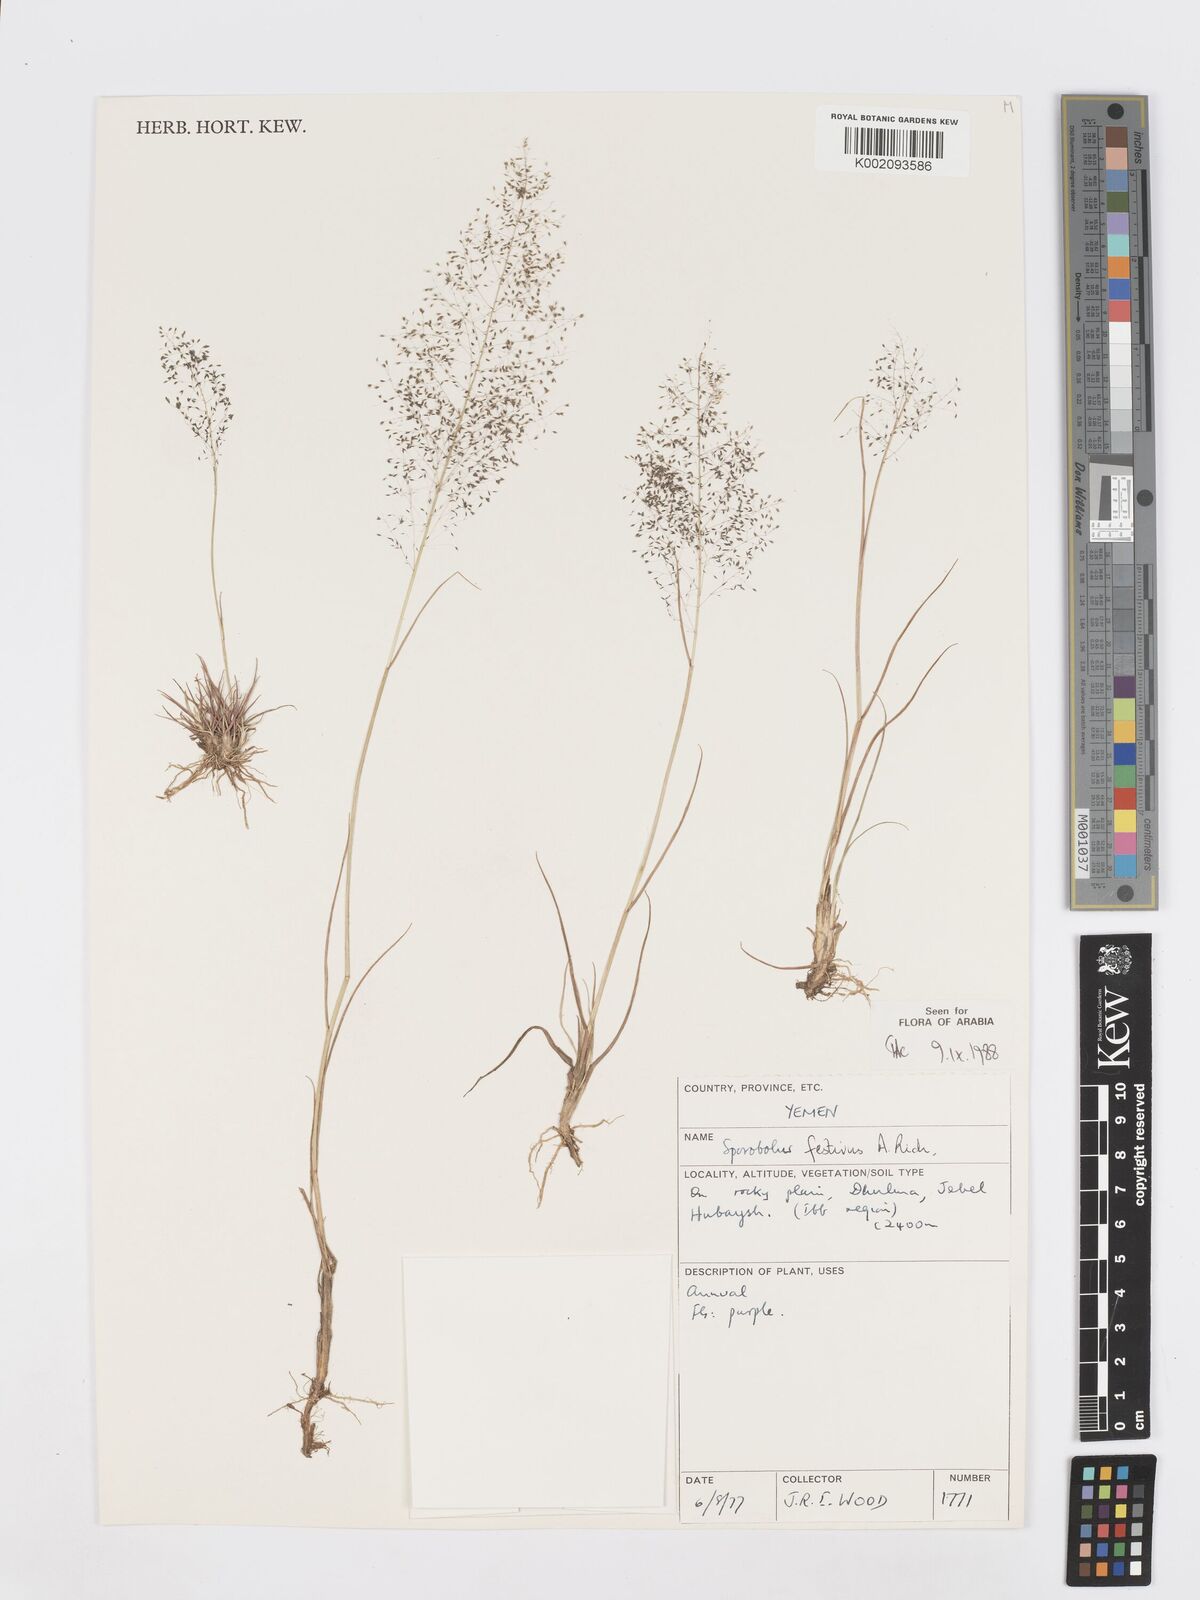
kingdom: Plantae
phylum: Tracheophyta
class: Liliopsida
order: Poales
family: Poaceae
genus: Sporobolus
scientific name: Sporobolus festivus
